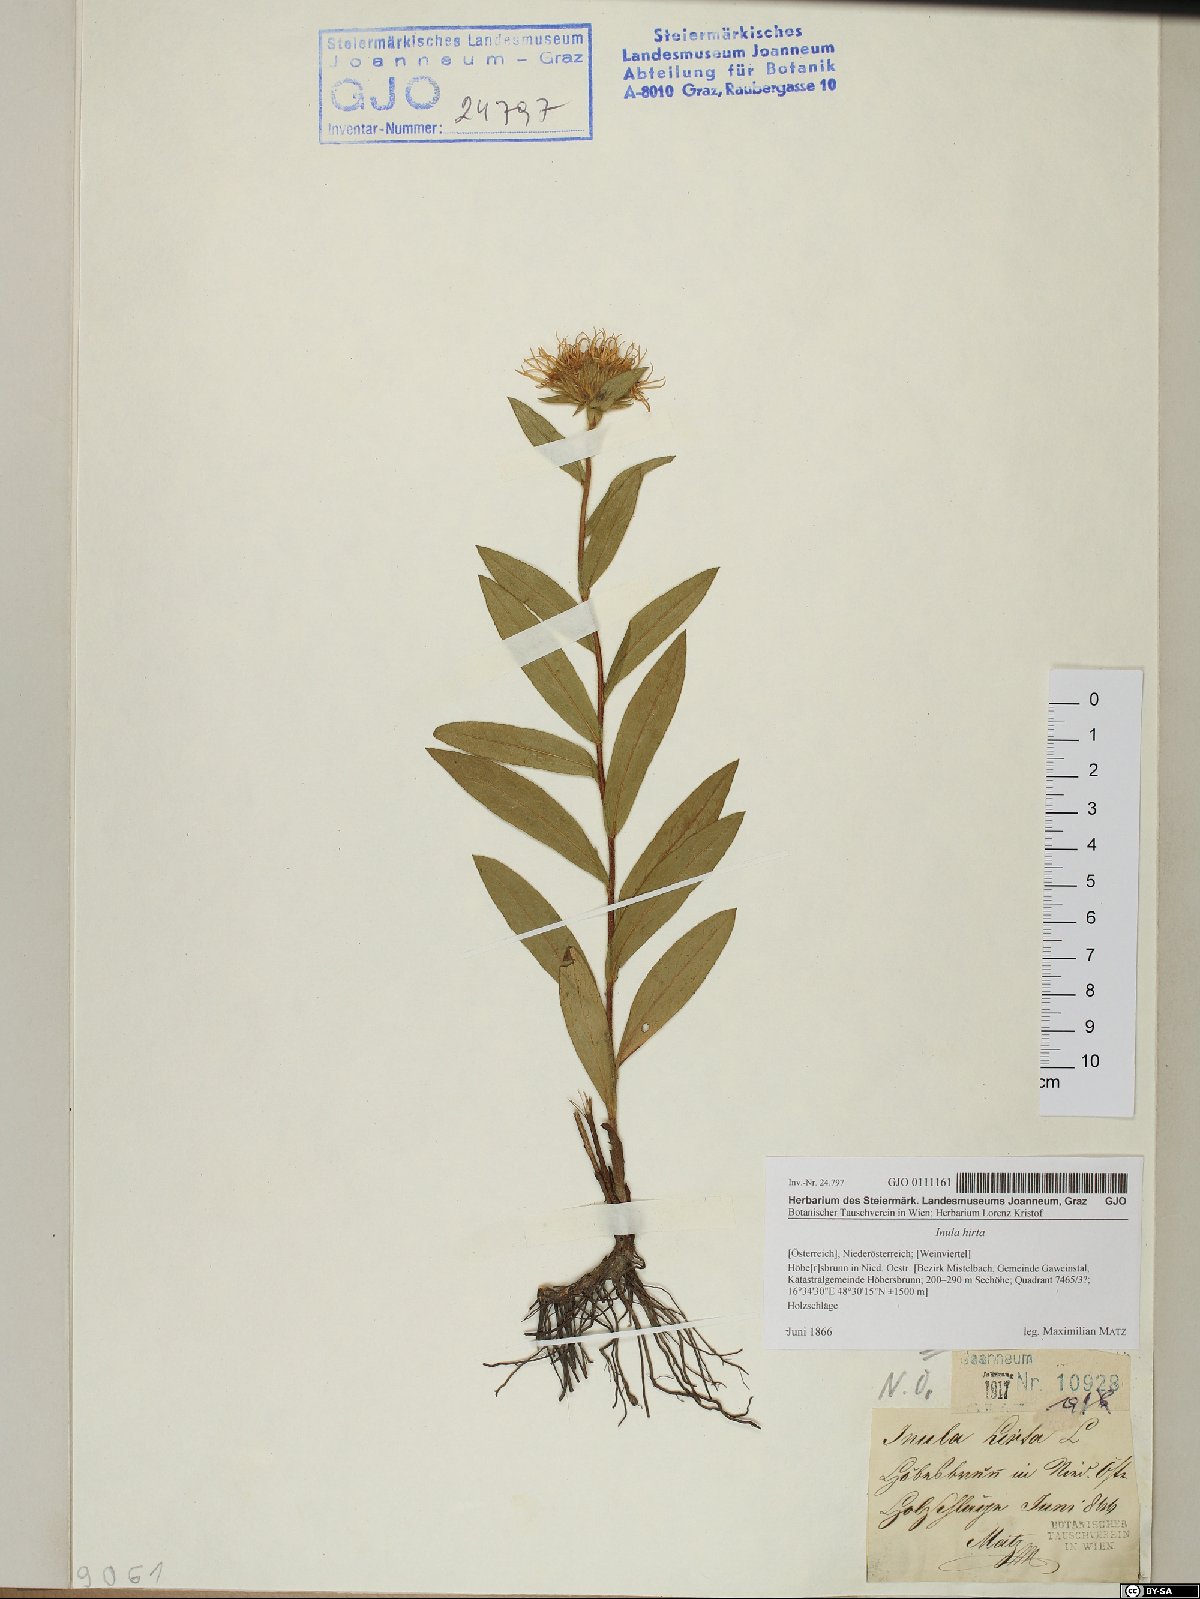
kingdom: Plantae
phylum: Tracheophyta
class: Magnoliopsida
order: Asterales
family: Asteraceae
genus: Pentanema
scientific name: Pentanema hirtum
